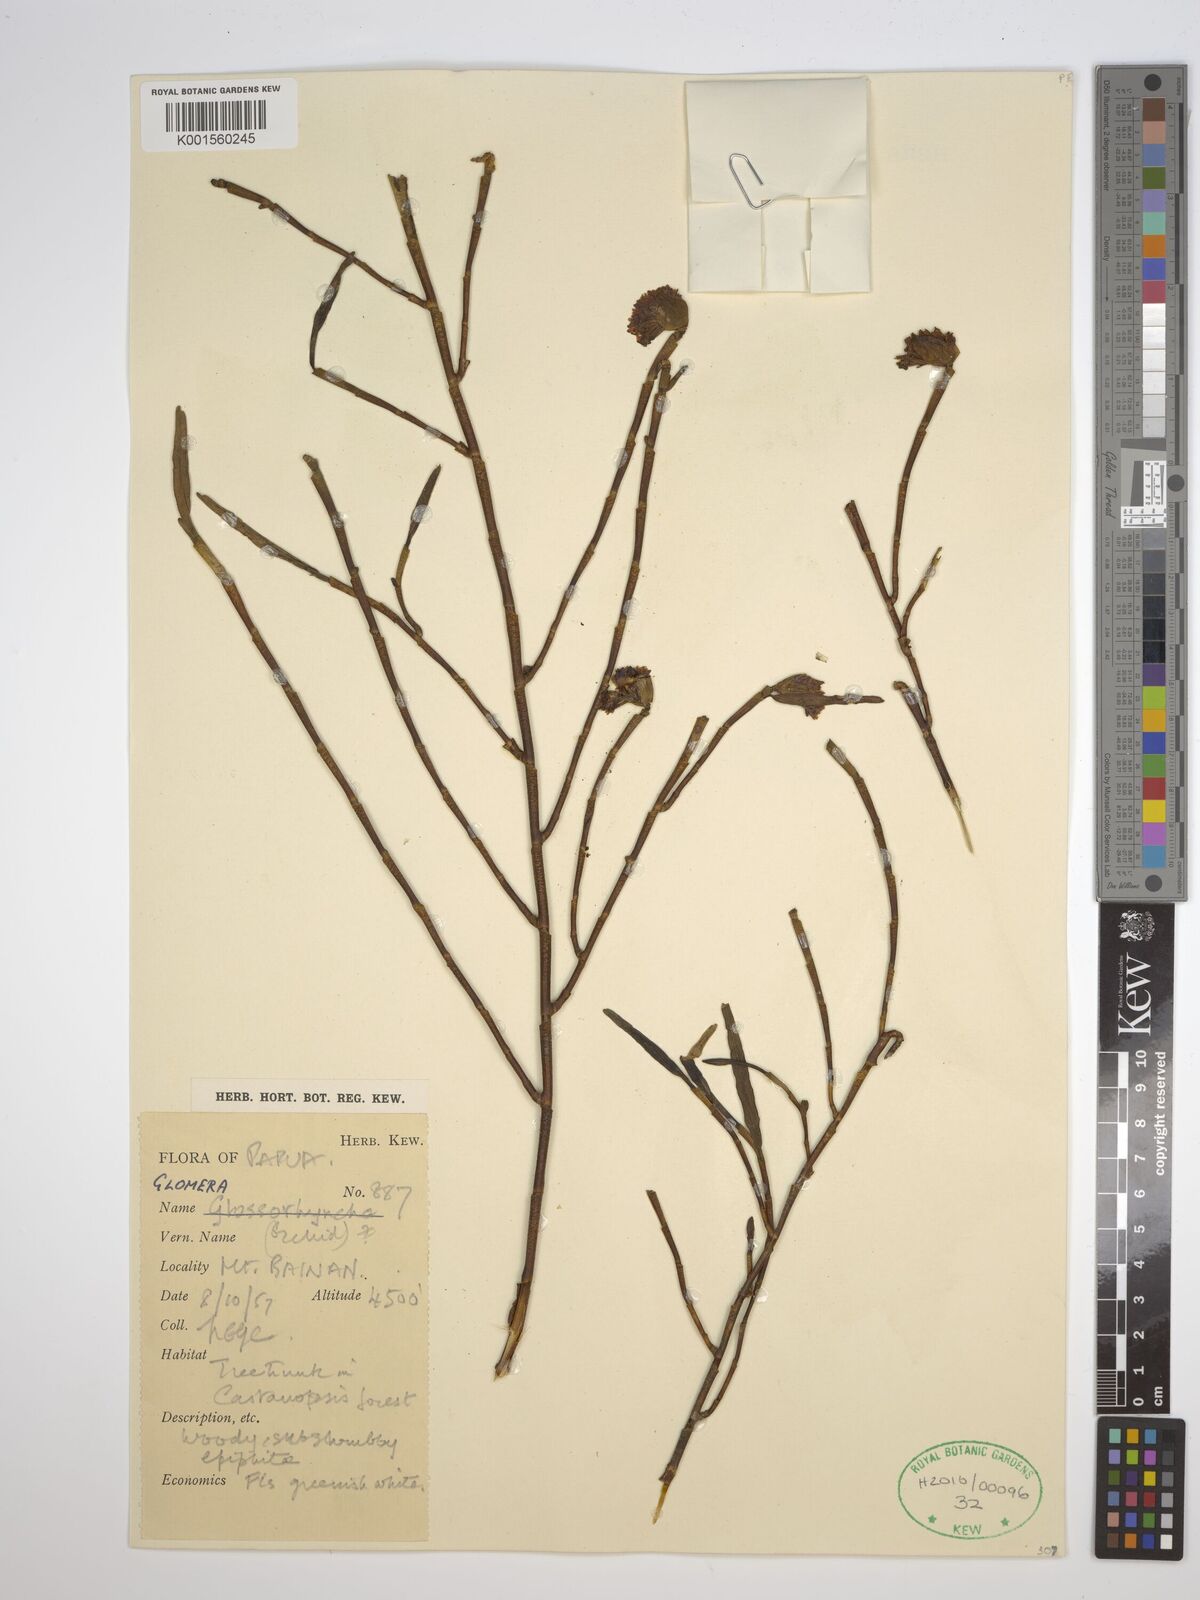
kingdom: Plantae
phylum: Tracheophyta
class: Liliopsida
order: Asparagales
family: Orchidaceae
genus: Glomera
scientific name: Glomera
